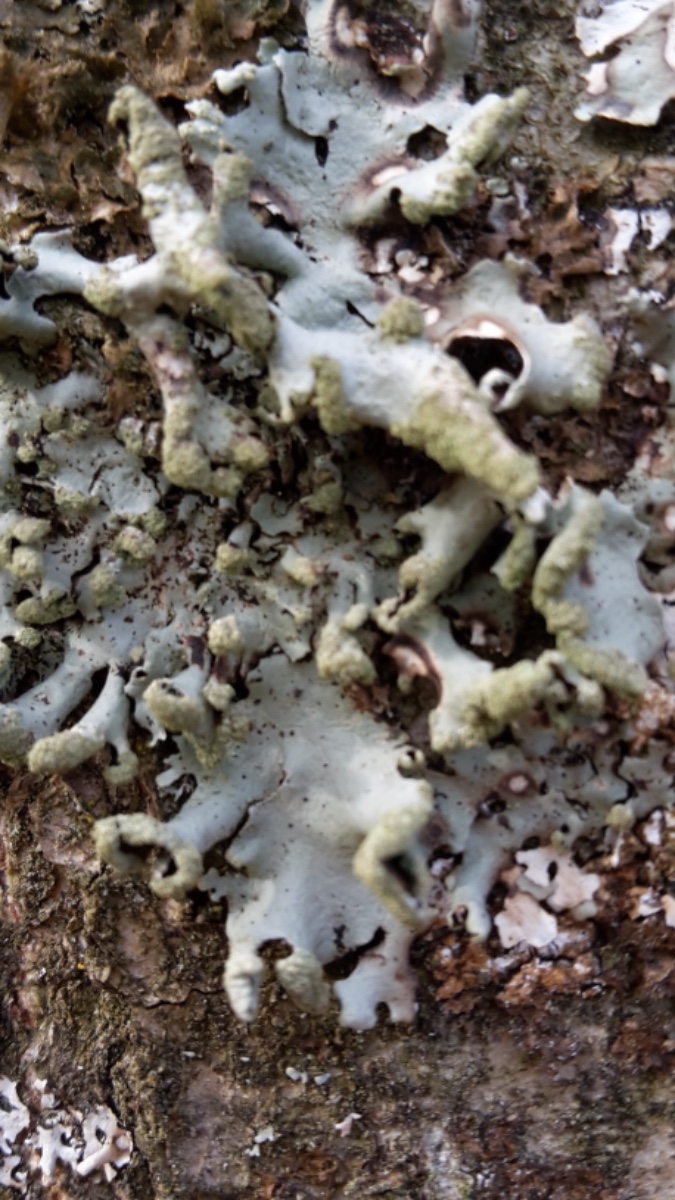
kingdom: Fungi
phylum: Ascomycota
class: Lecanoromycetes
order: Lecanorales
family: Parmeliaceae
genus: Hypotrachyna
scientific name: Hypotrachyna revoluta
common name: bleggrå skållav
